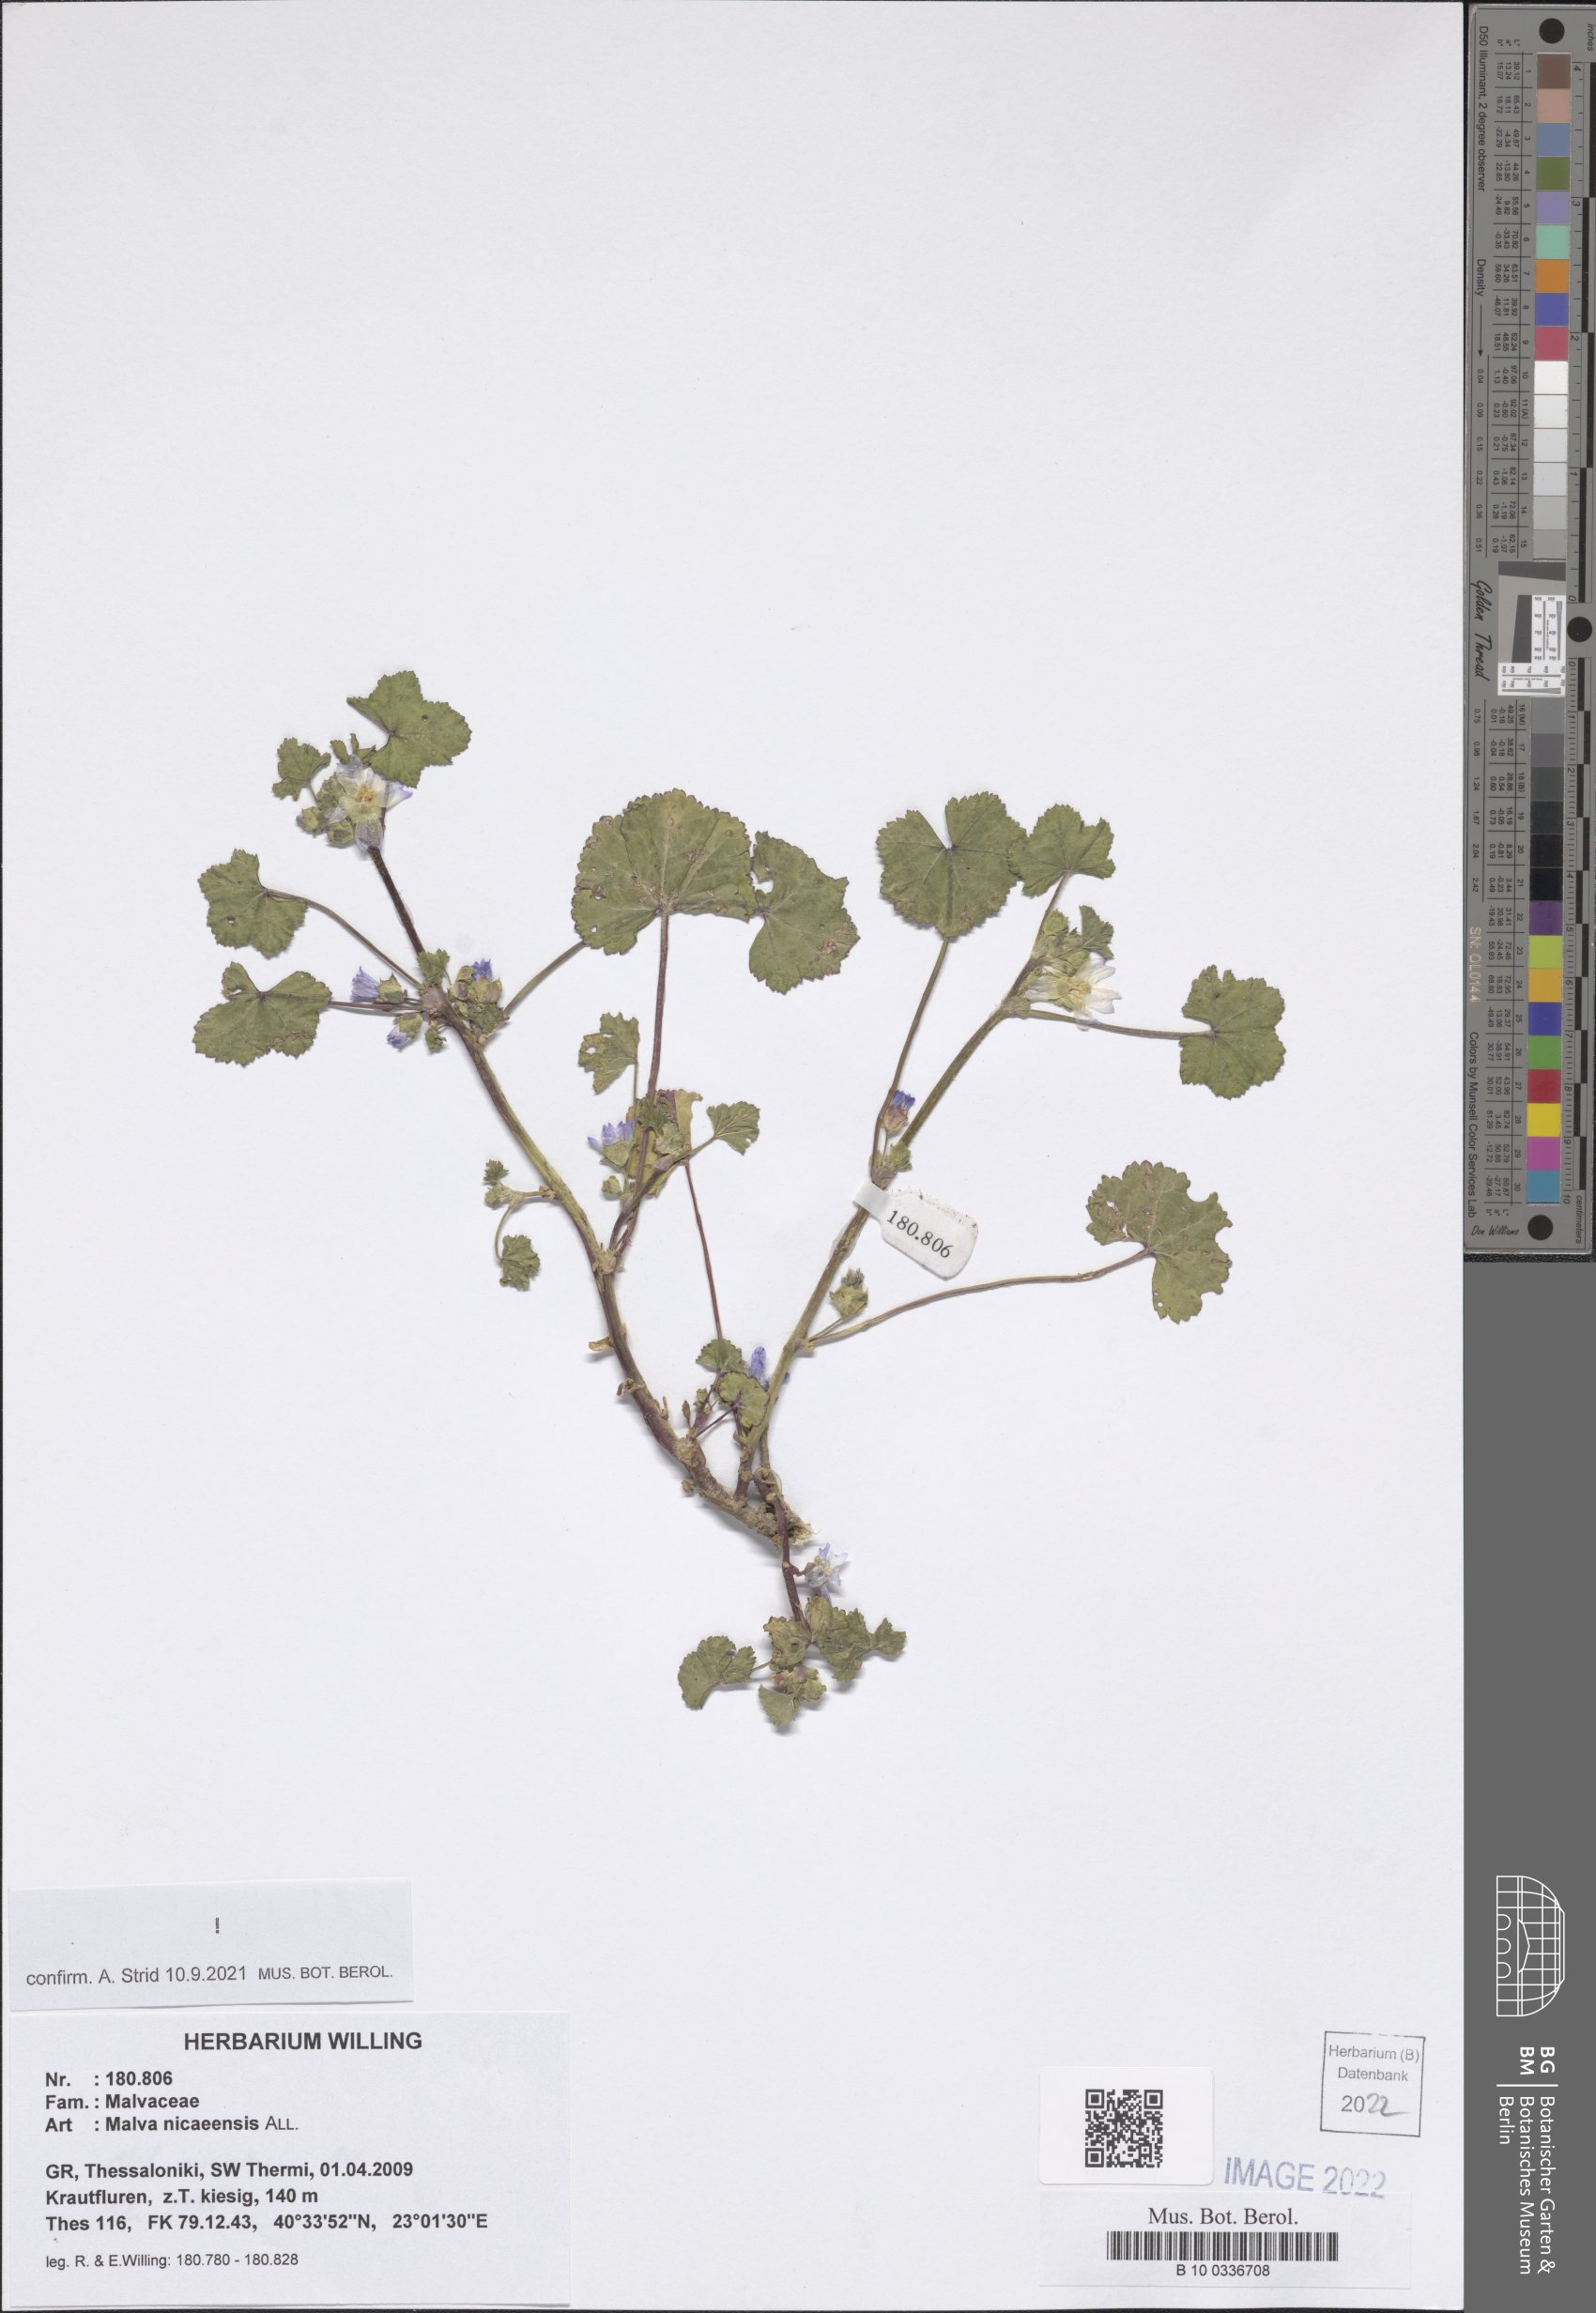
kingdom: Plantae
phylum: Tracheophyta
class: Magnoliopsida
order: Malvales
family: Malvaceae
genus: Malva
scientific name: Malva nicaeensis
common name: French mallow
